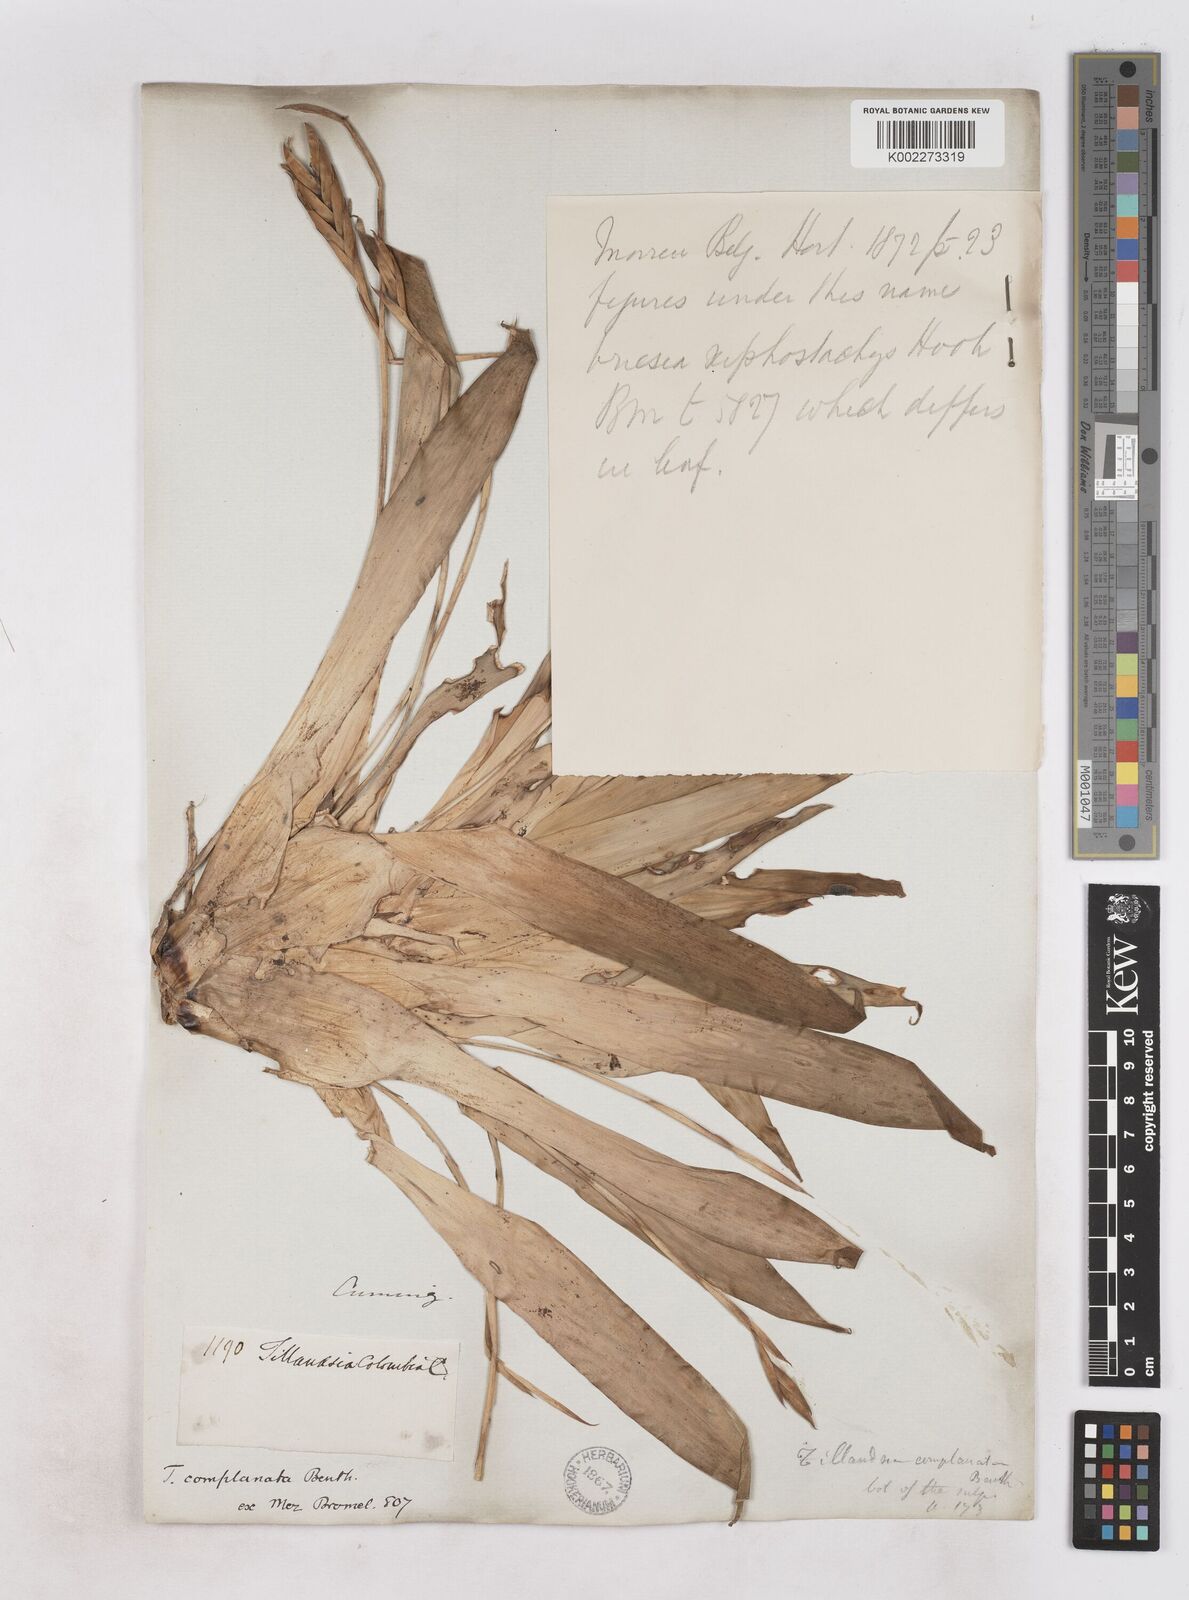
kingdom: Plantae
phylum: Tracheophyta
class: Liliopsida
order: Poales
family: Bromeliaceae
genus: Tillandsia
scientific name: Tillandsia complanata
